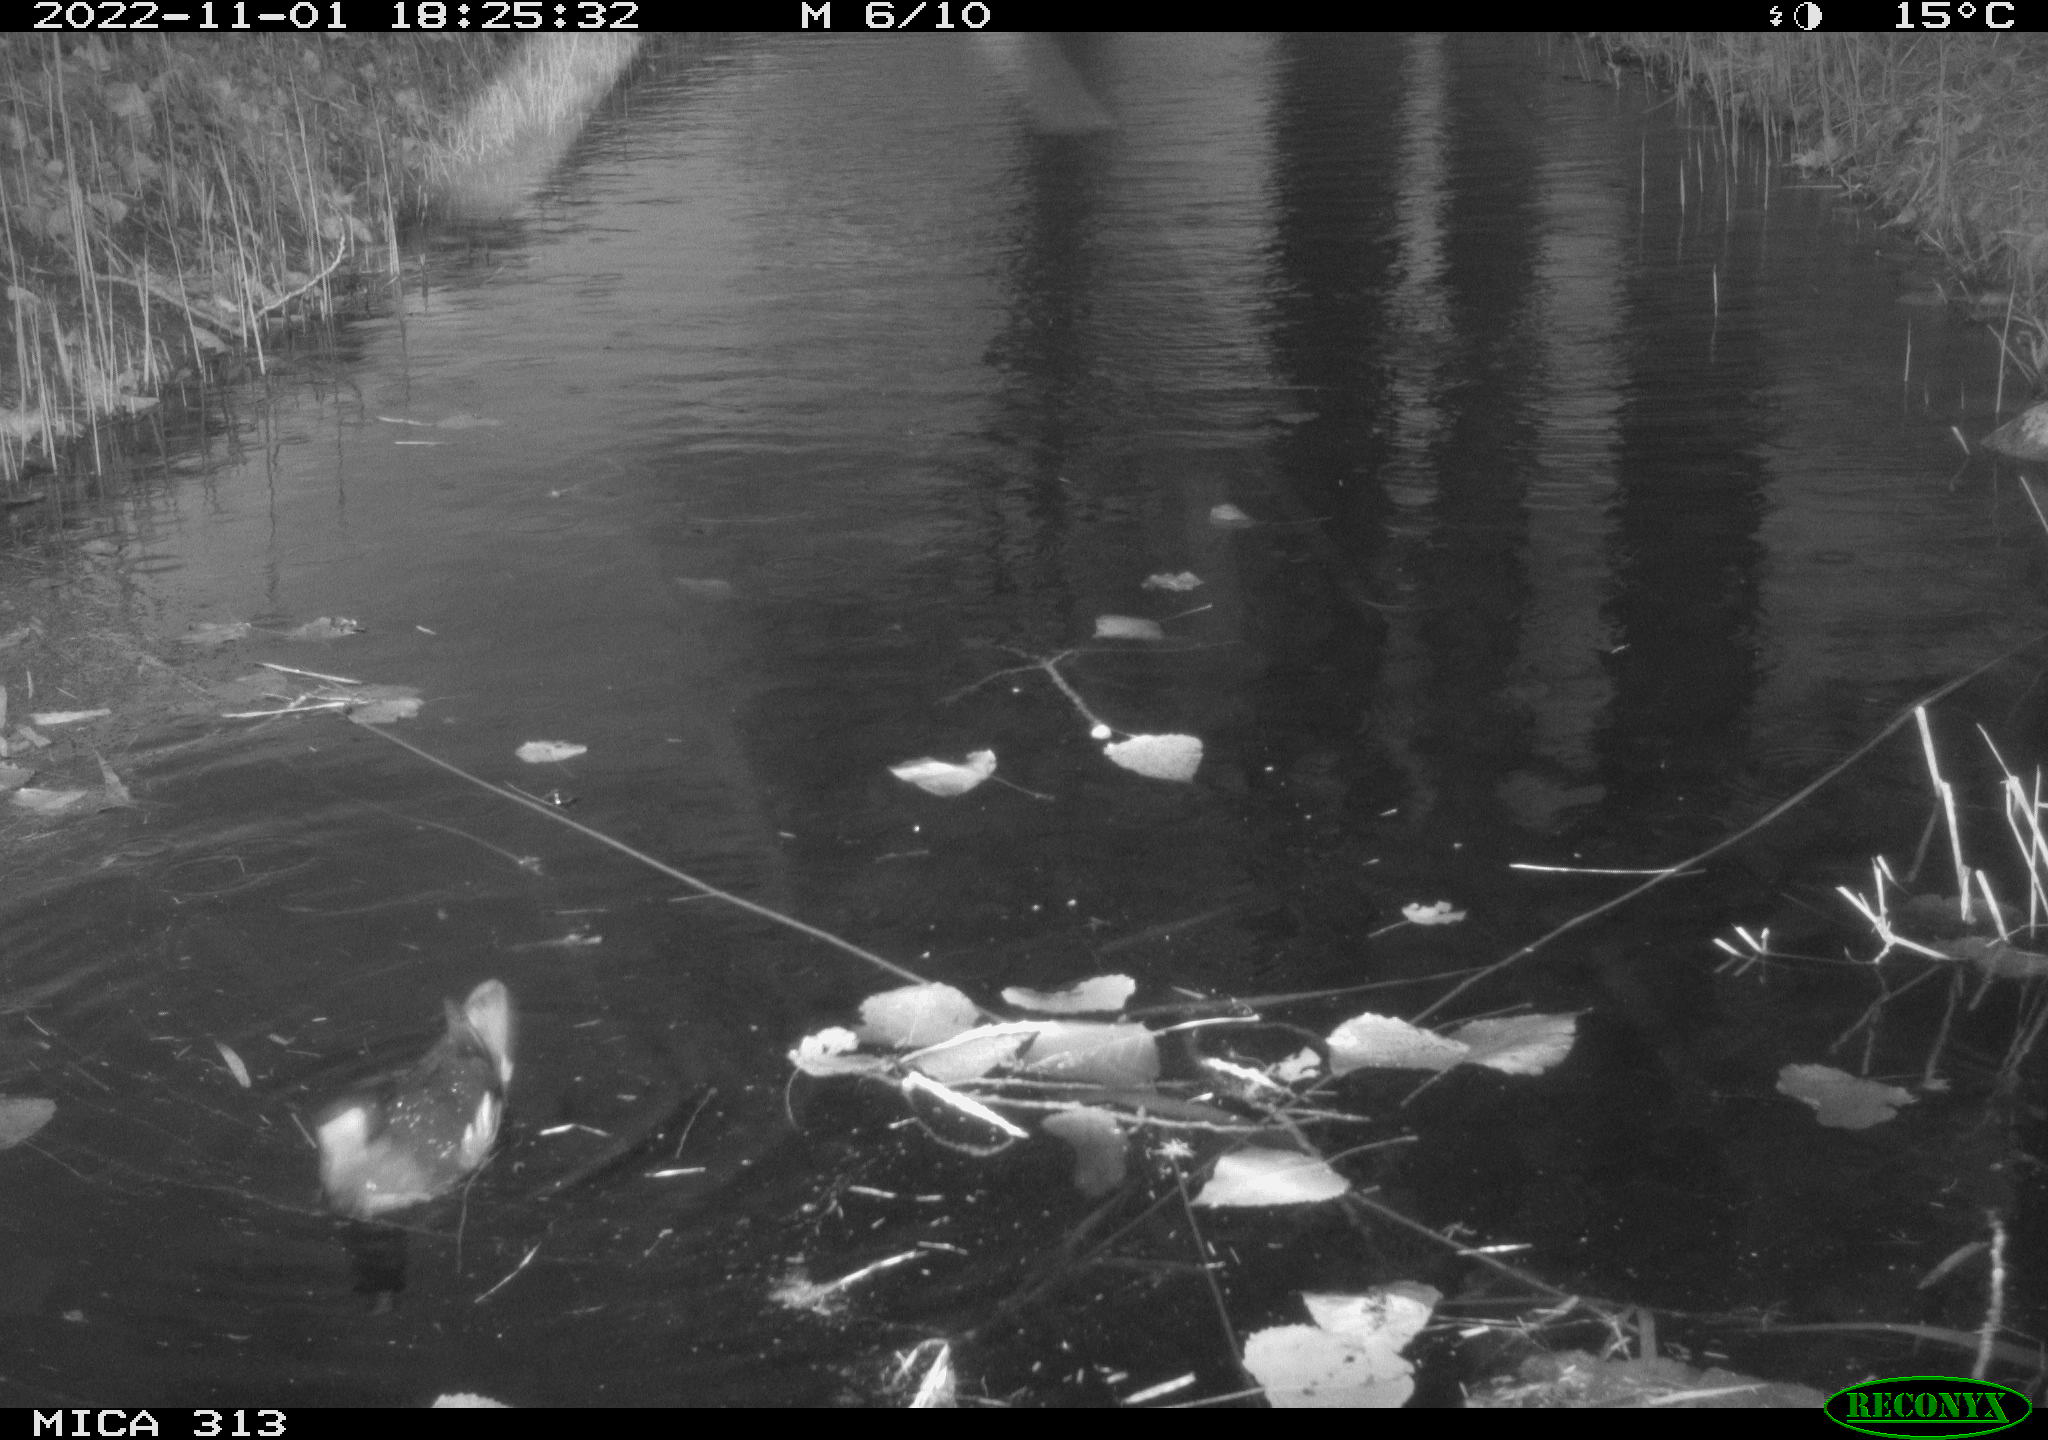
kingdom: Animalia
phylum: Chordata
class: Aves
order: Gruiformes
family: Rallidae
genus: Gallinula
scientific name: Gallinula chloropus
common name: Common moorhen
